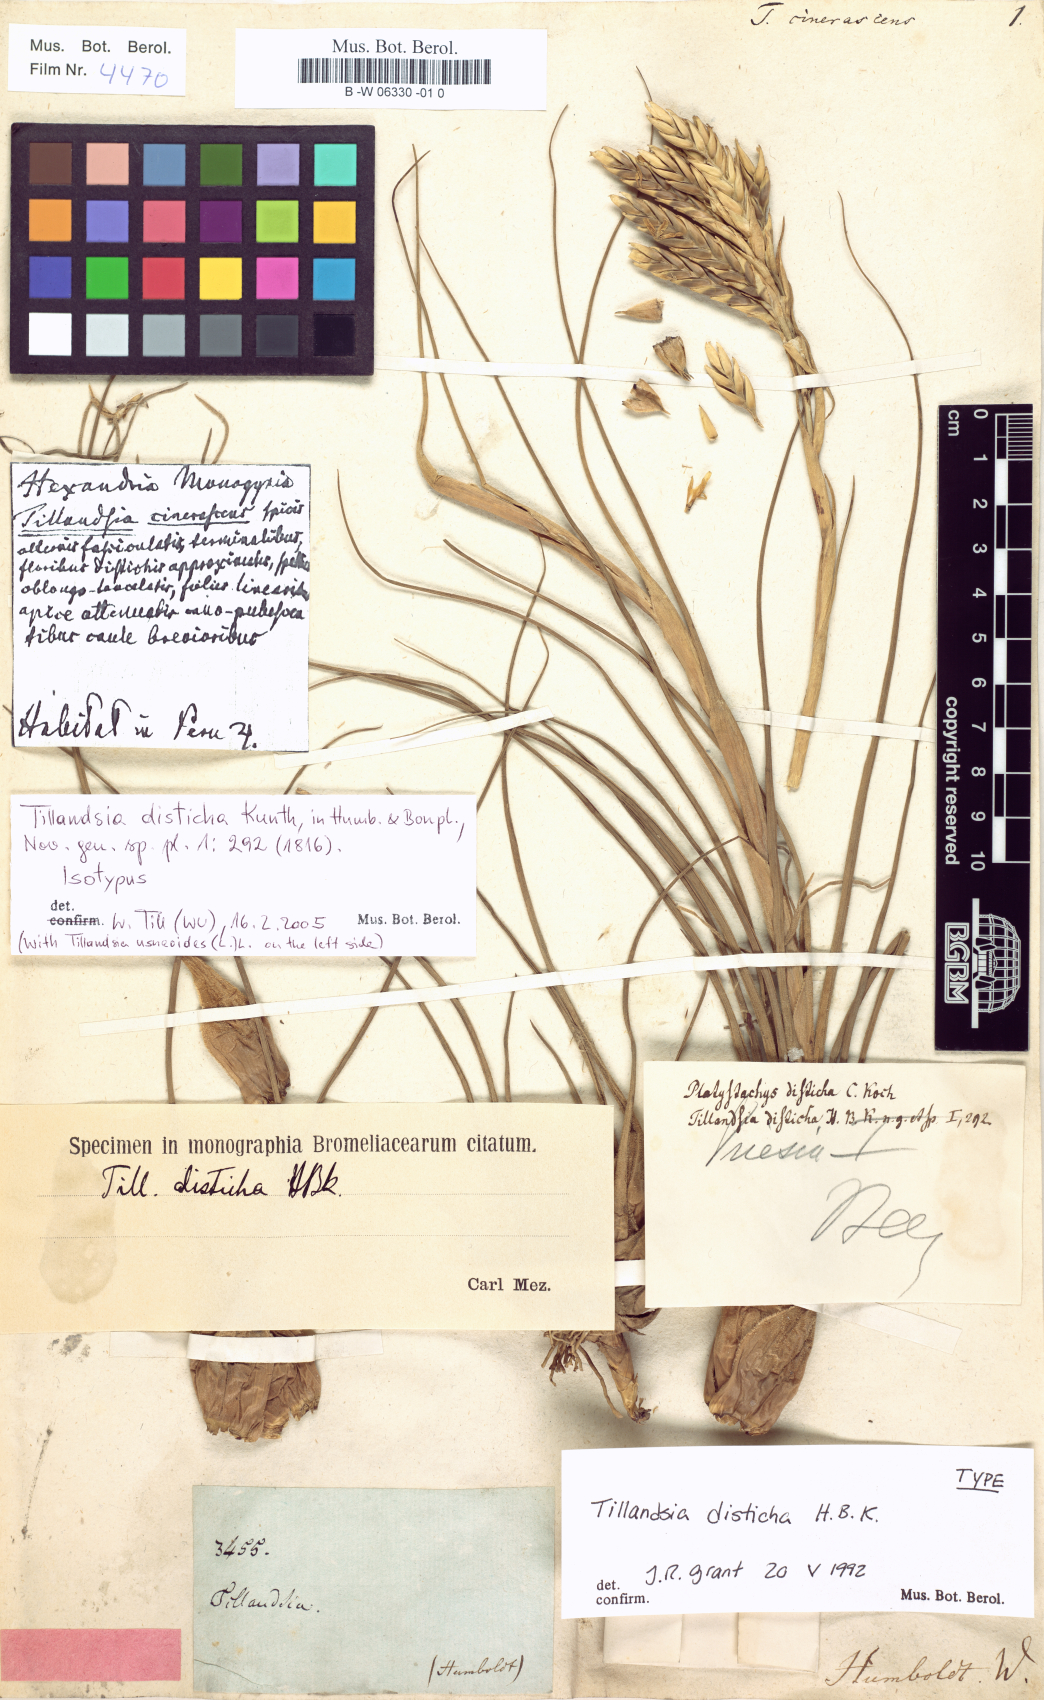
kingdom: Plantae
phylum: Tracheophyta
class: Liliopsida
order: Poales
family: Bromeliaceae
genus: Tillandsia
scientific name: Tillandsia disticha
